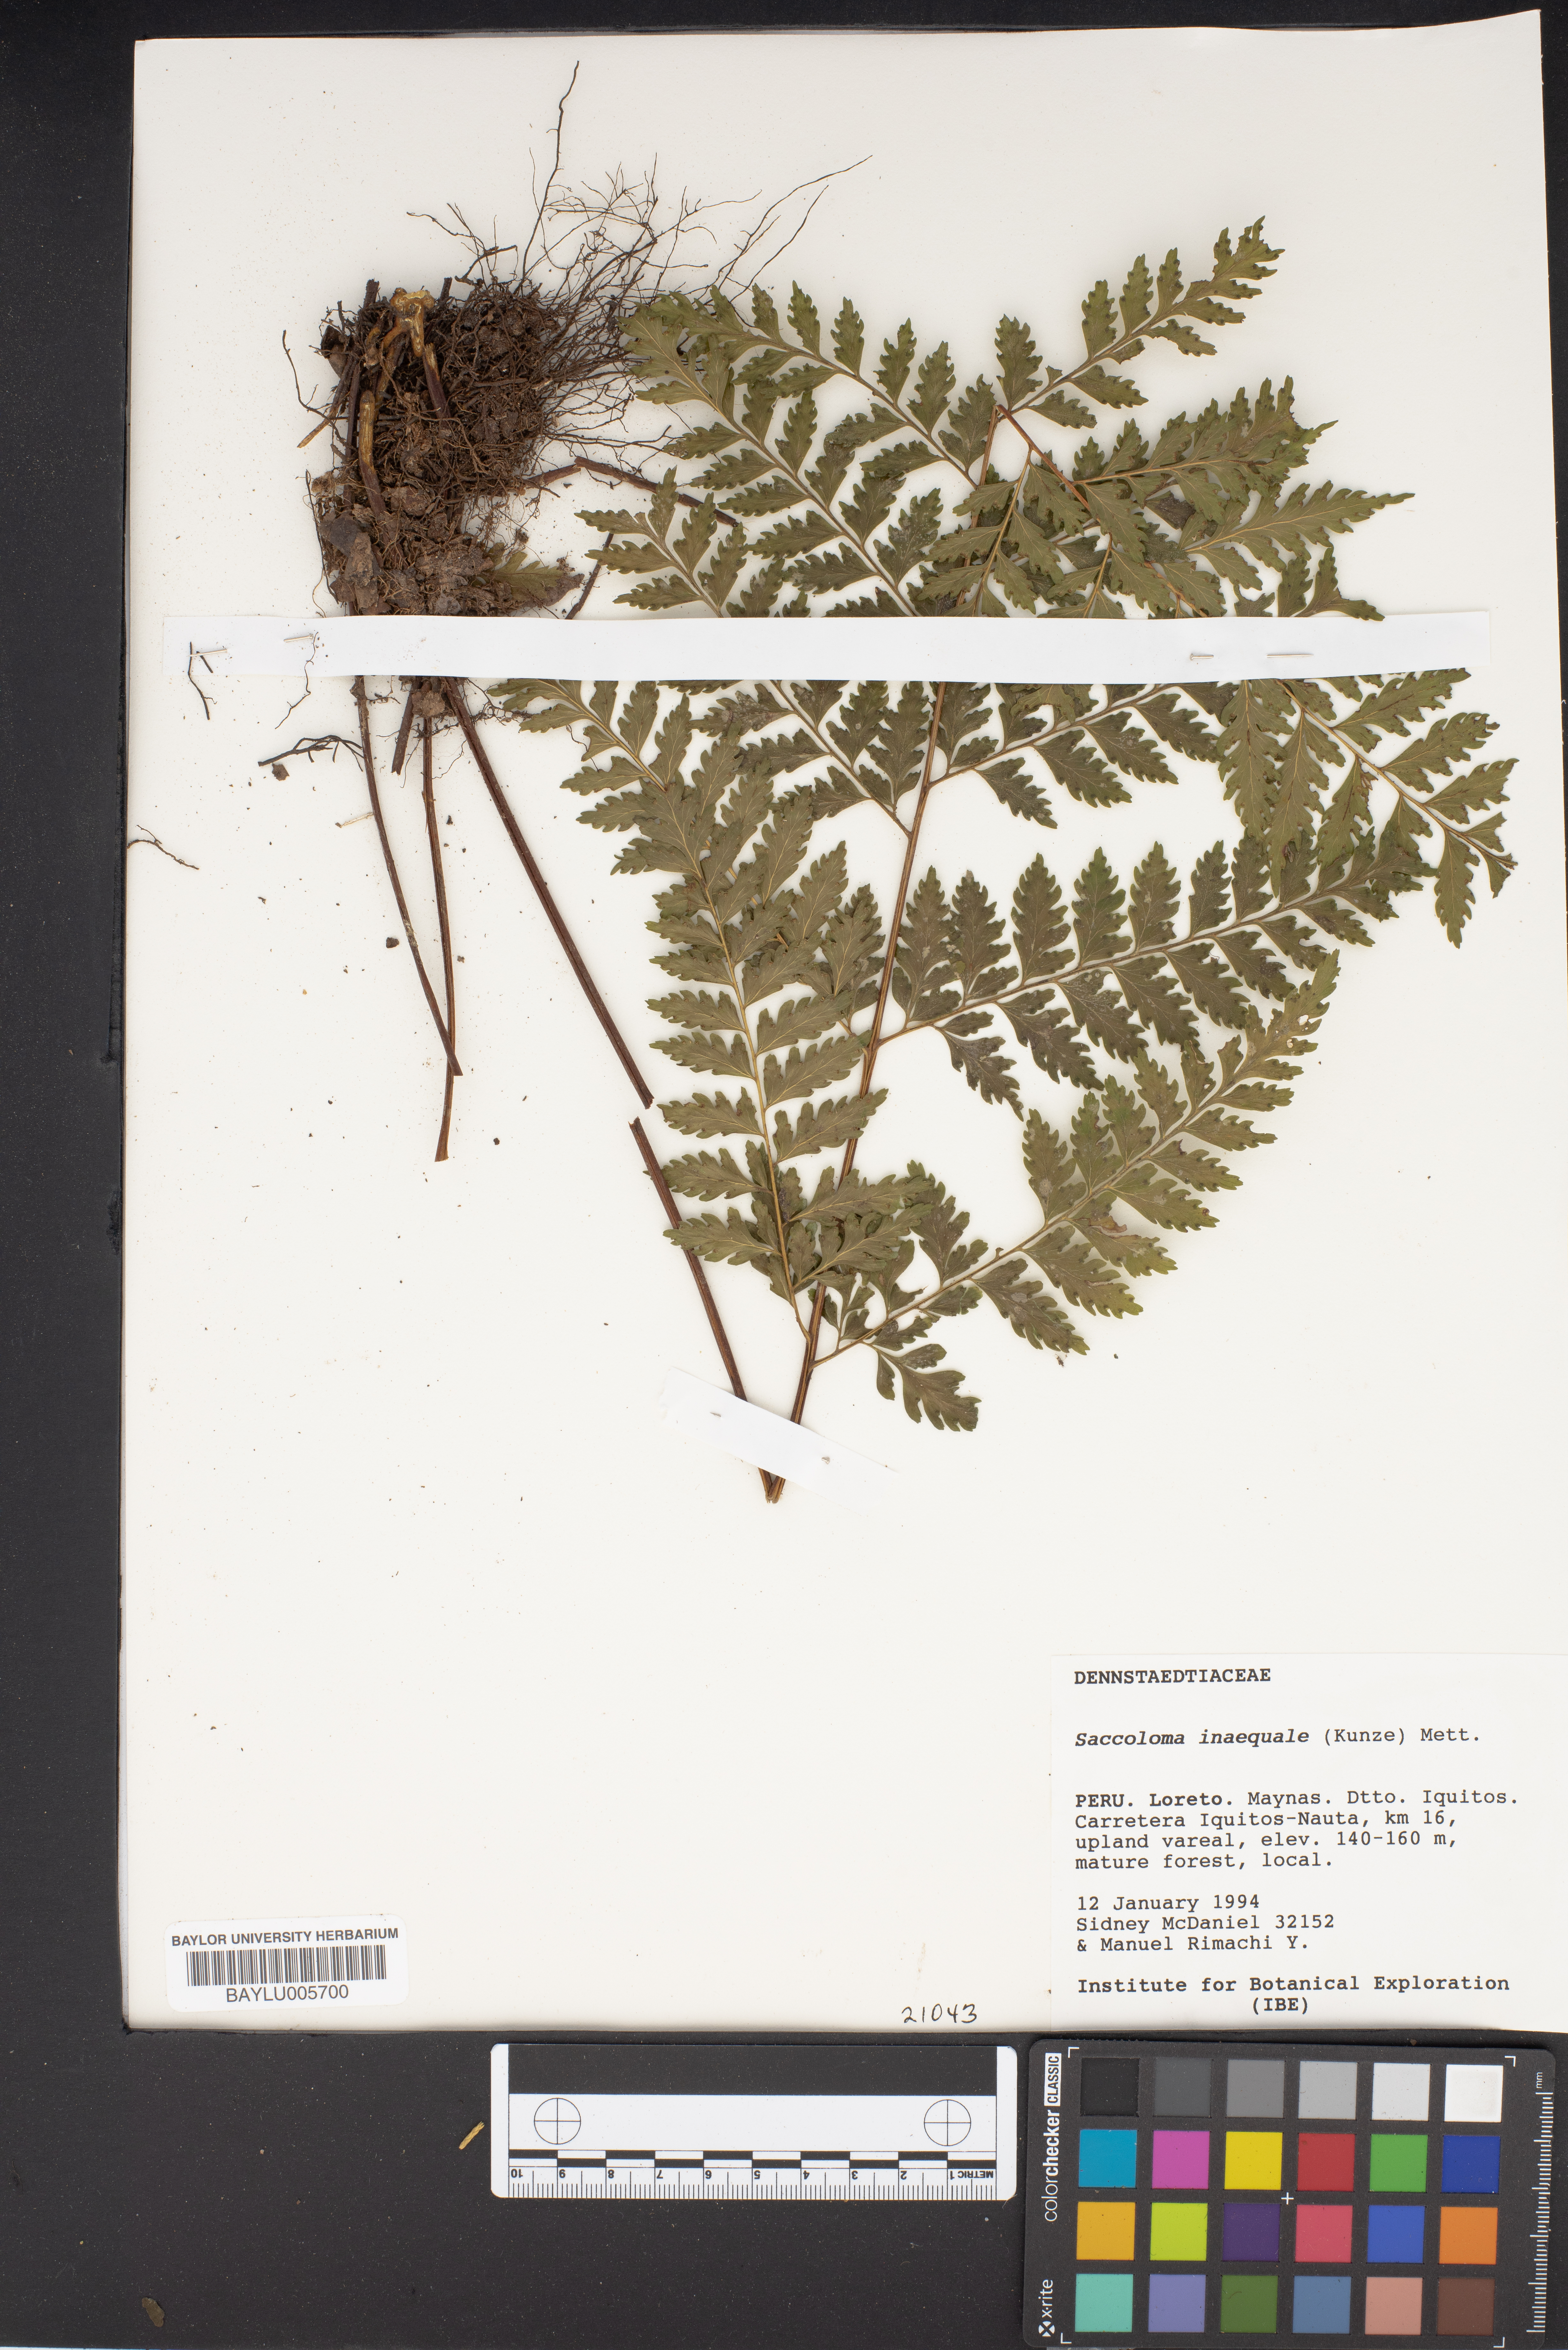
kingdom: Plantae
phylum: Tracheophyta
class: Polypodiopsida
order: Polypodiales
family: Saccolomataceae
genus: Saccoloma
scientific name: Saccoloma inaequale
